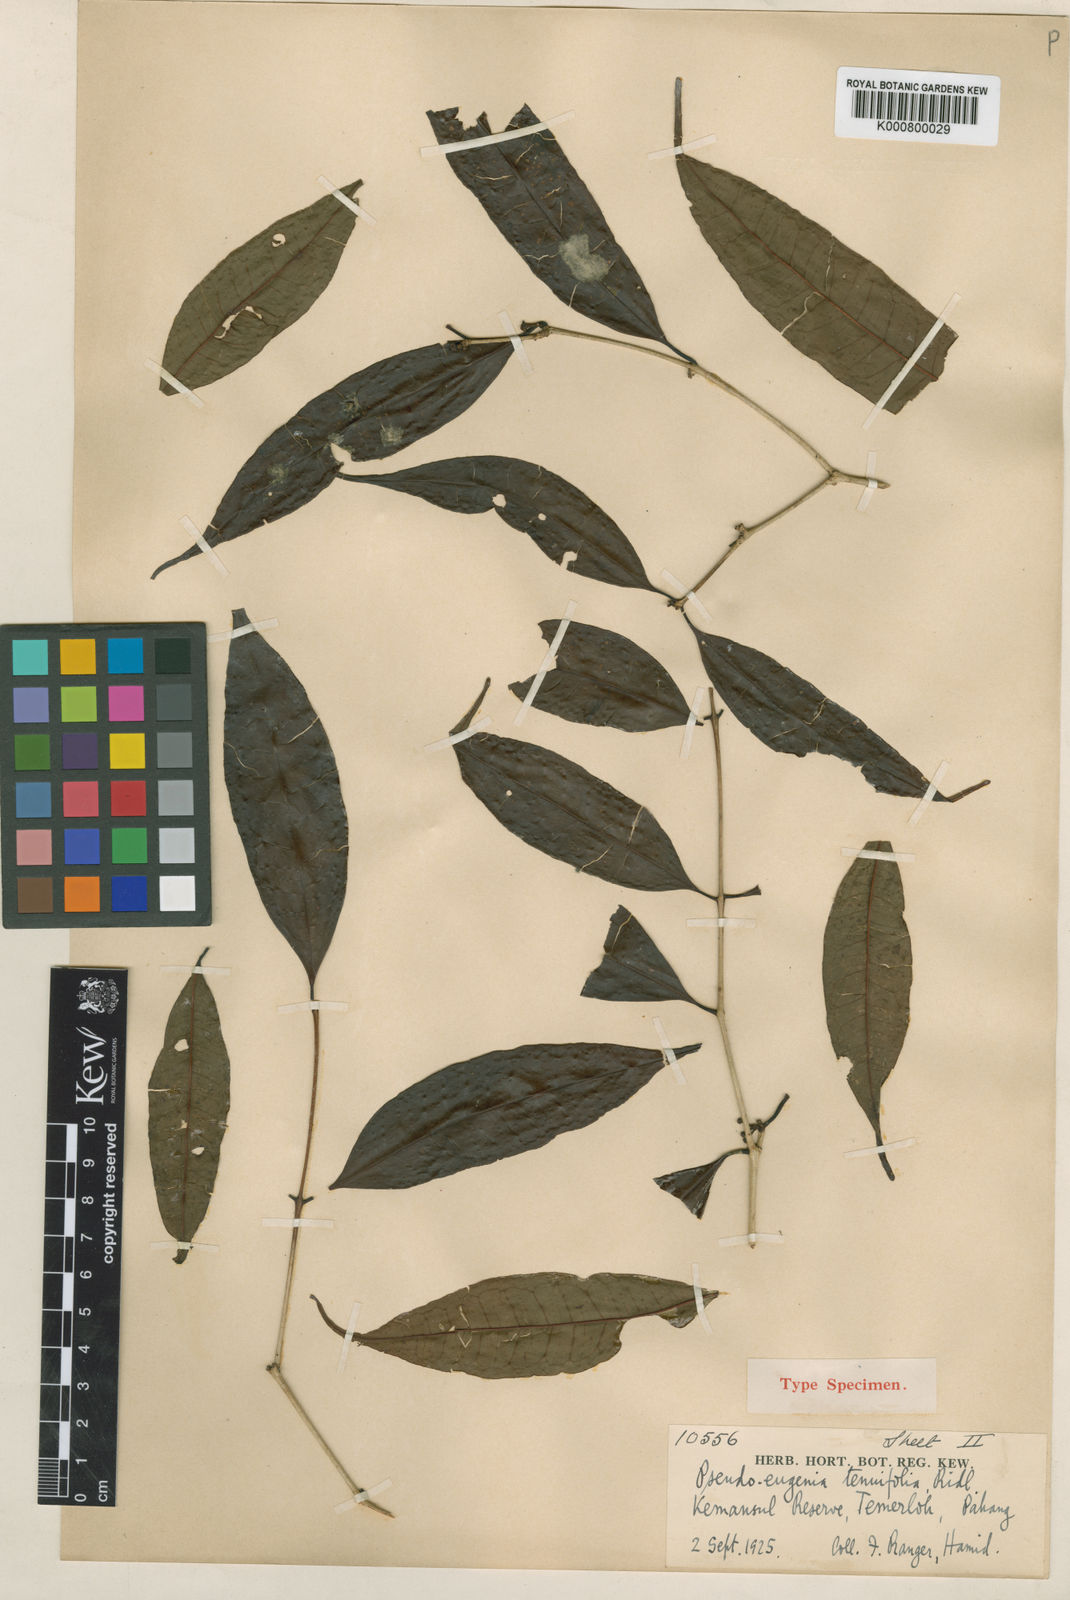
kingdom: Plantae
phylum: Tracheophyta
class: Magnoliopsida
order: Myrtales
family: Myrtaceae
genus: Syzygium
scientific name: Syzygium tenuifolium
